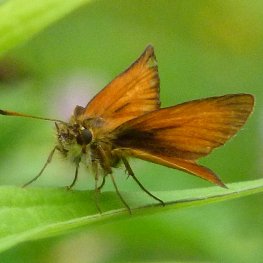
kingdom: Animalia
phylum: Arthropoda
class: Insecta
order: Lepidoptera
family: Hesperiidae
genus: Thymelicus
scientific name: Thymelicus lineola
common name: European Skipper
